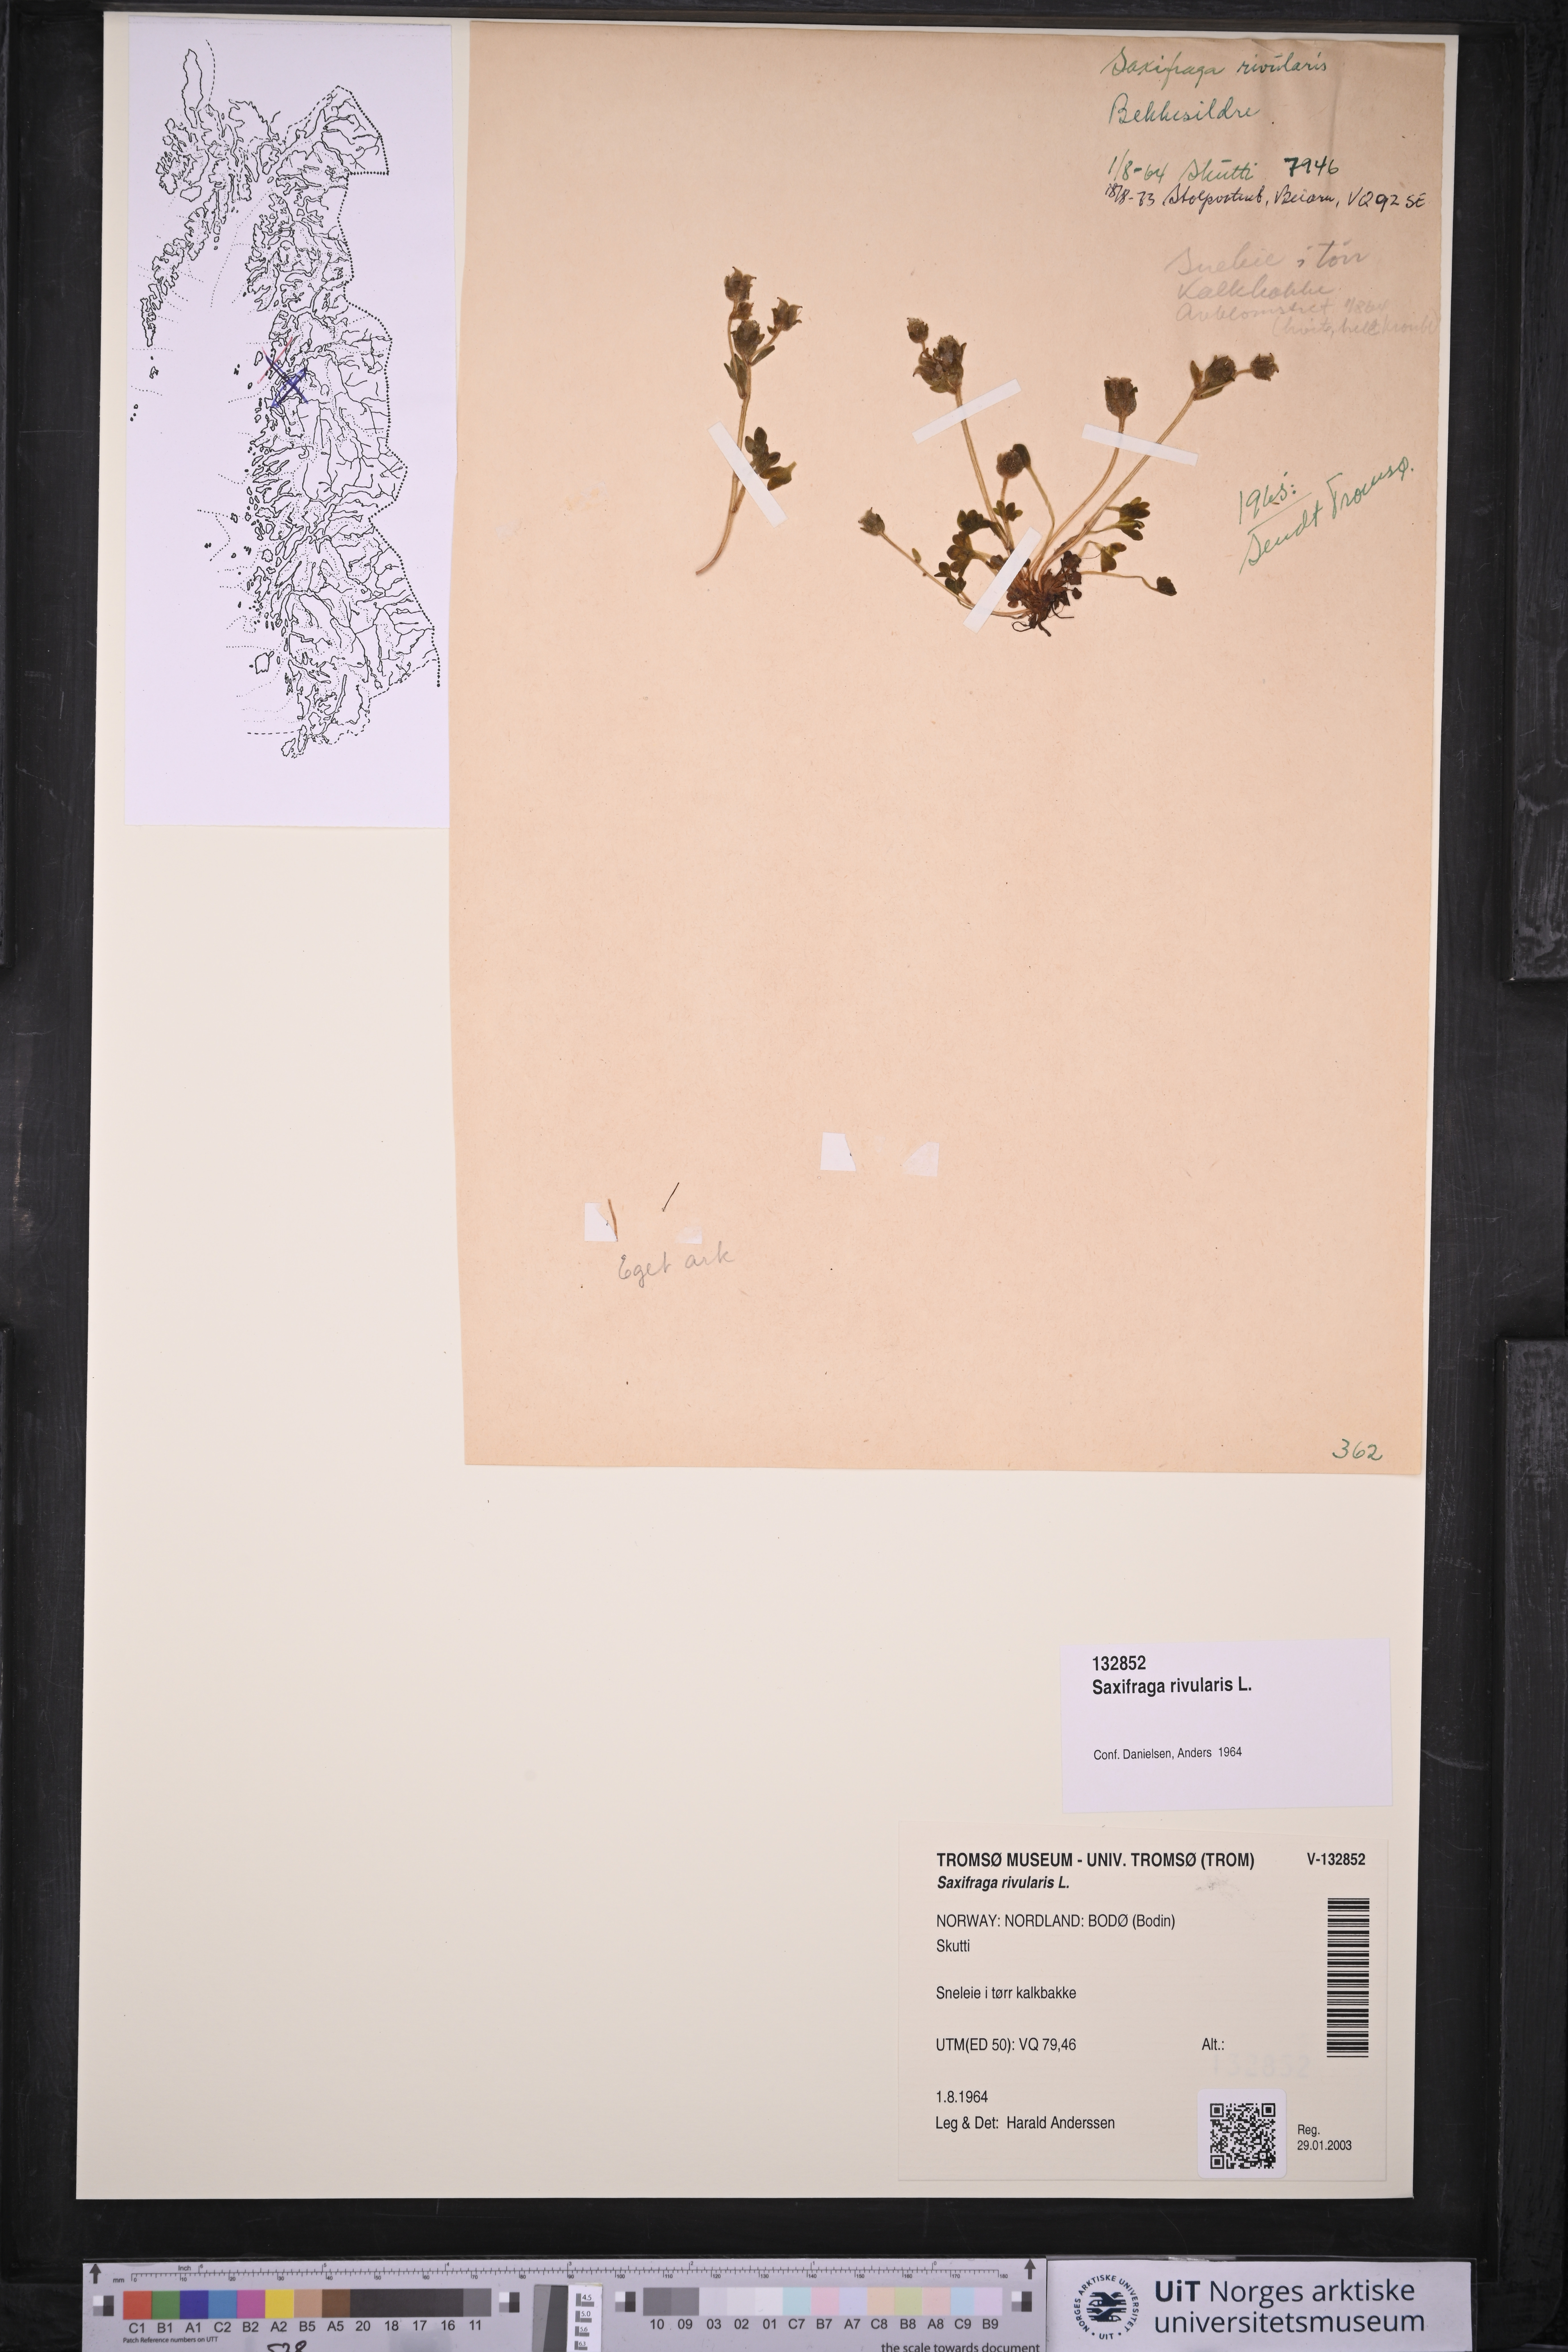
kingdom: Plantae
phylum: Tracheophyta
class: Magnoliopsida
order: Saxifragales
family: Saxifragaceae
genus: Saxifraga
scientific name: Saxifraga rivularis
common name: Highland saxifrage
